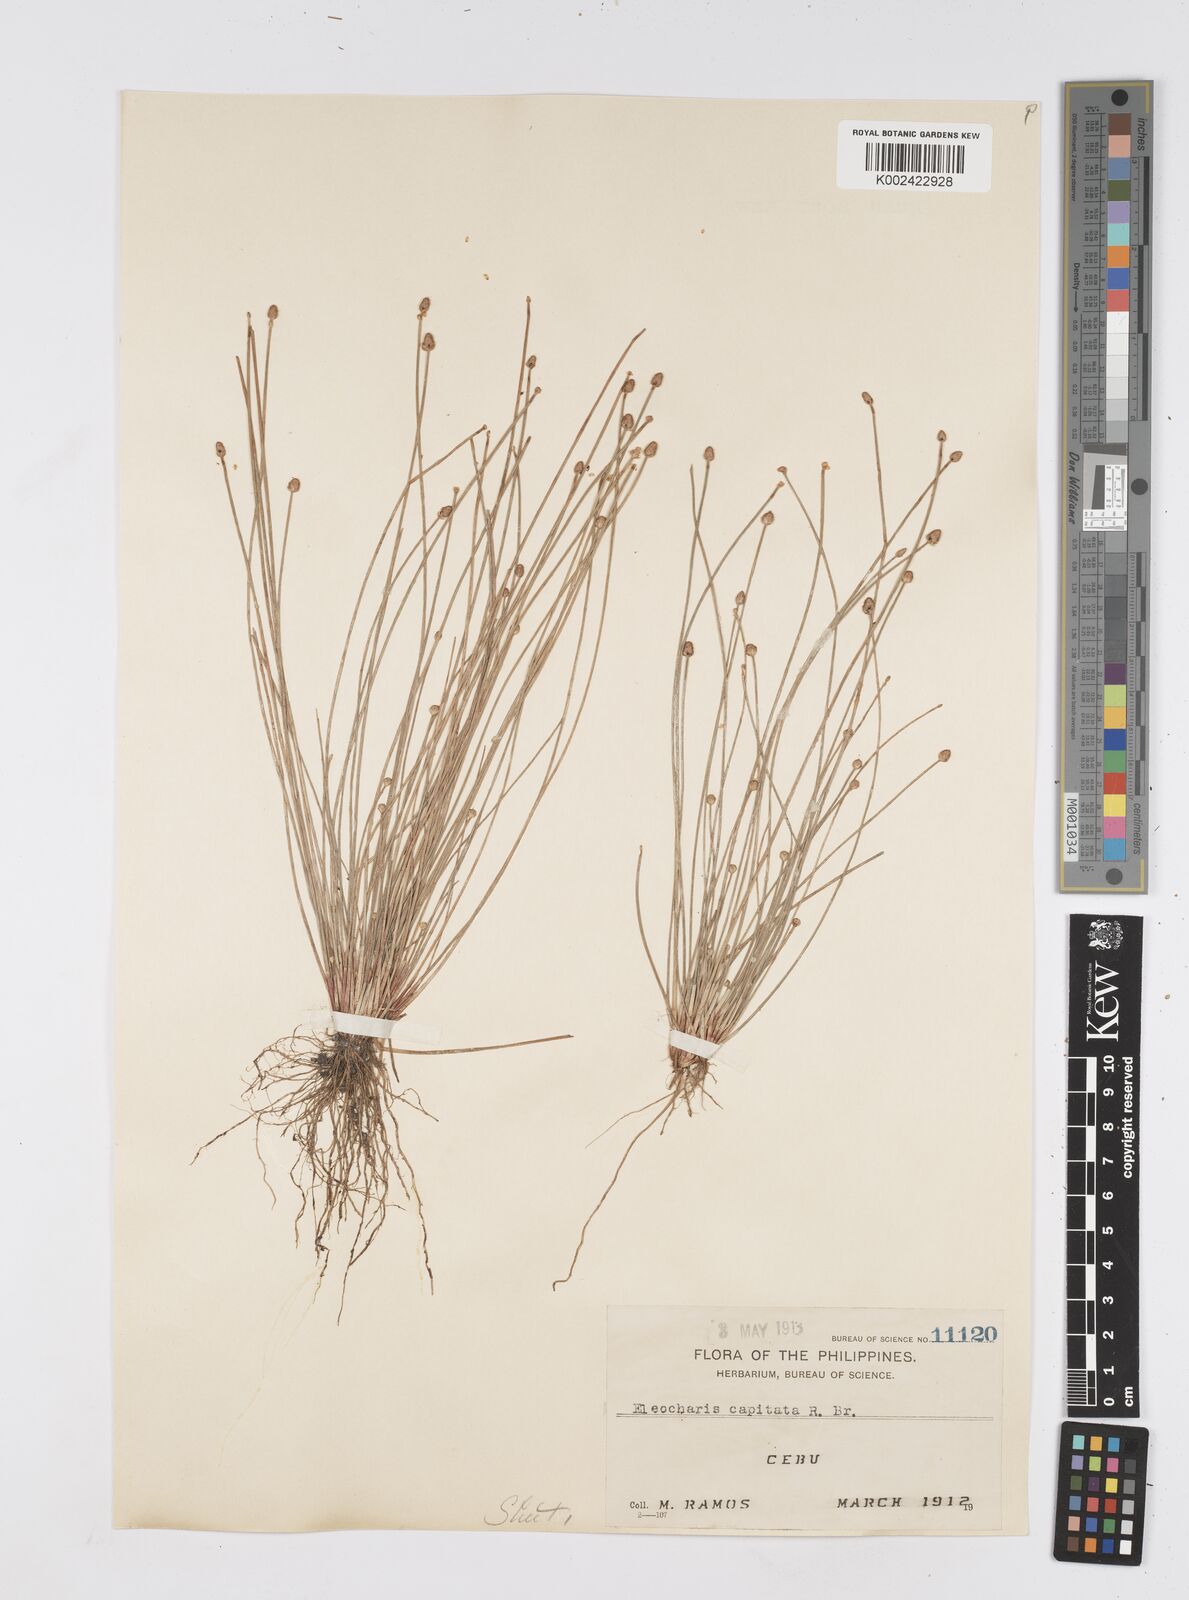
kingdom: Plantae
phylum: Tracheophyta
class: Liliopsida
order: Poales
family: Cyperaceae
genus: Eleocharis
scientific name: Eleocharis geniculata
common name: Canada spikesedge
